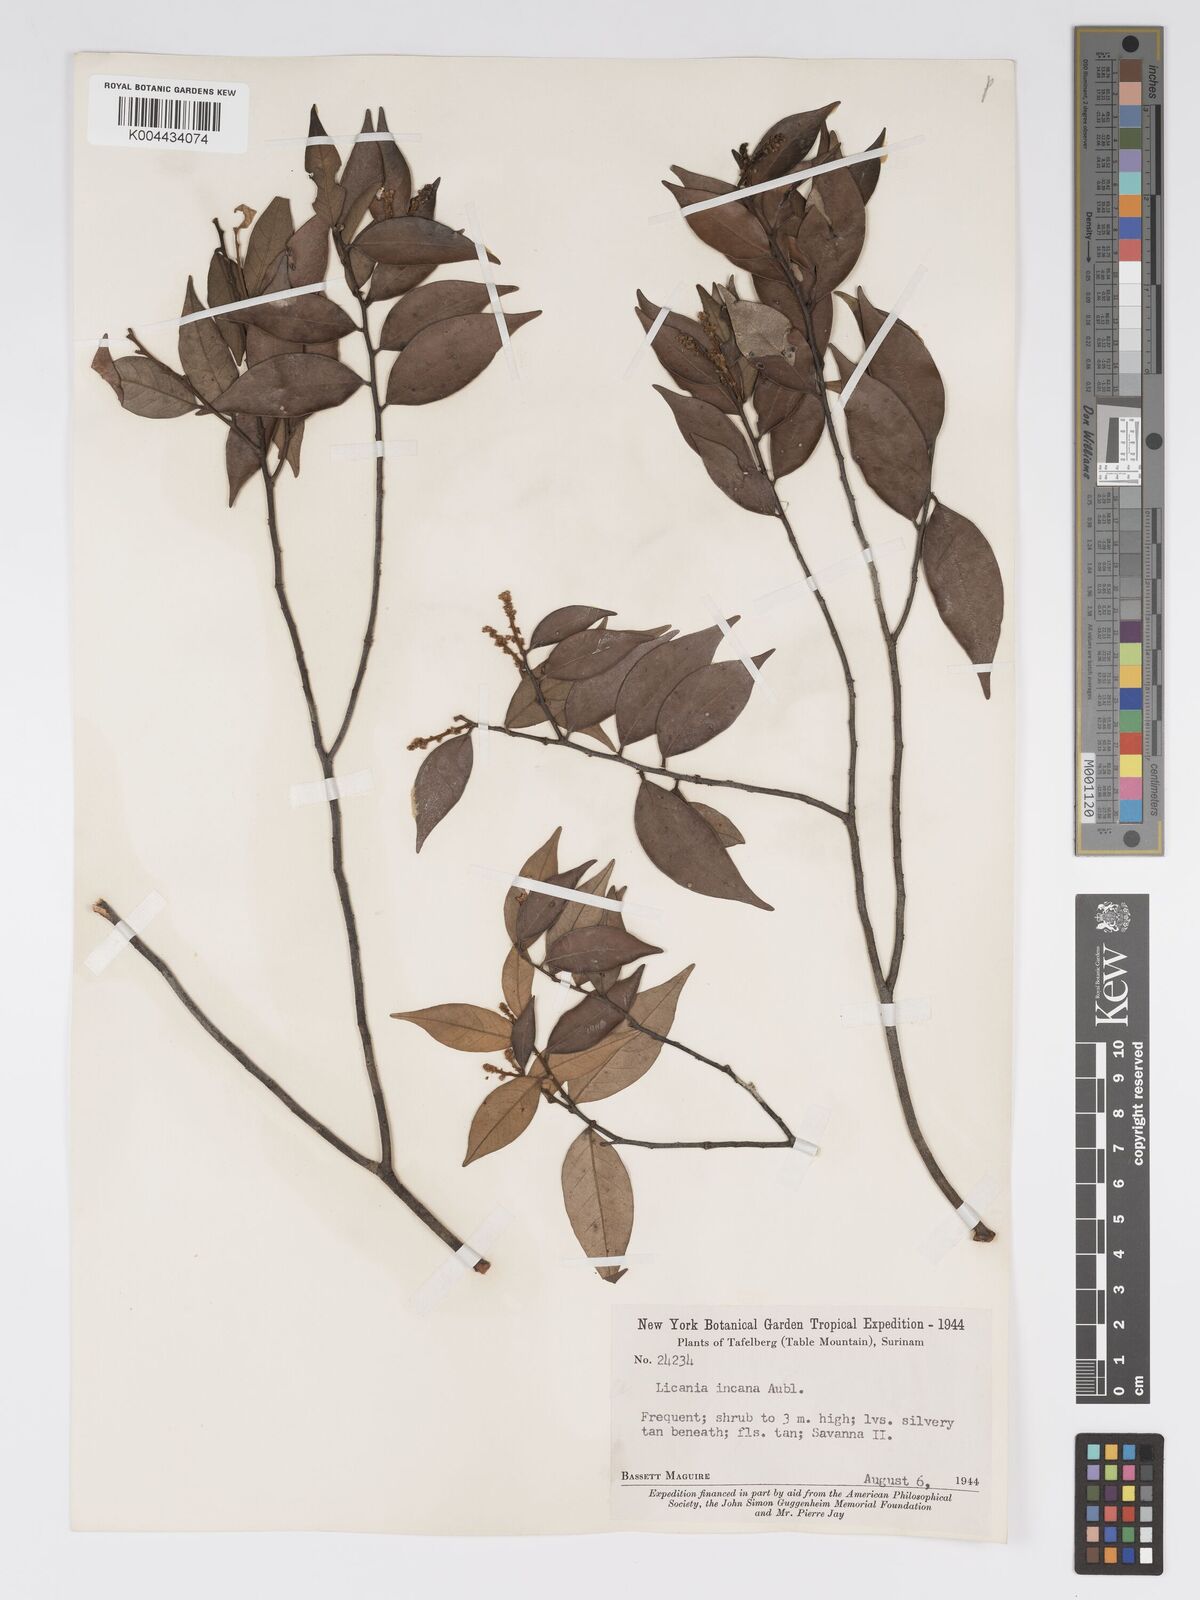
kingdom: Plantae
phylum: Tracheophyta
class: Magnoliopsida
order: Malpighiales
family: Chrysobalanaceae
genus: Licania
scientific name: Licania incana
